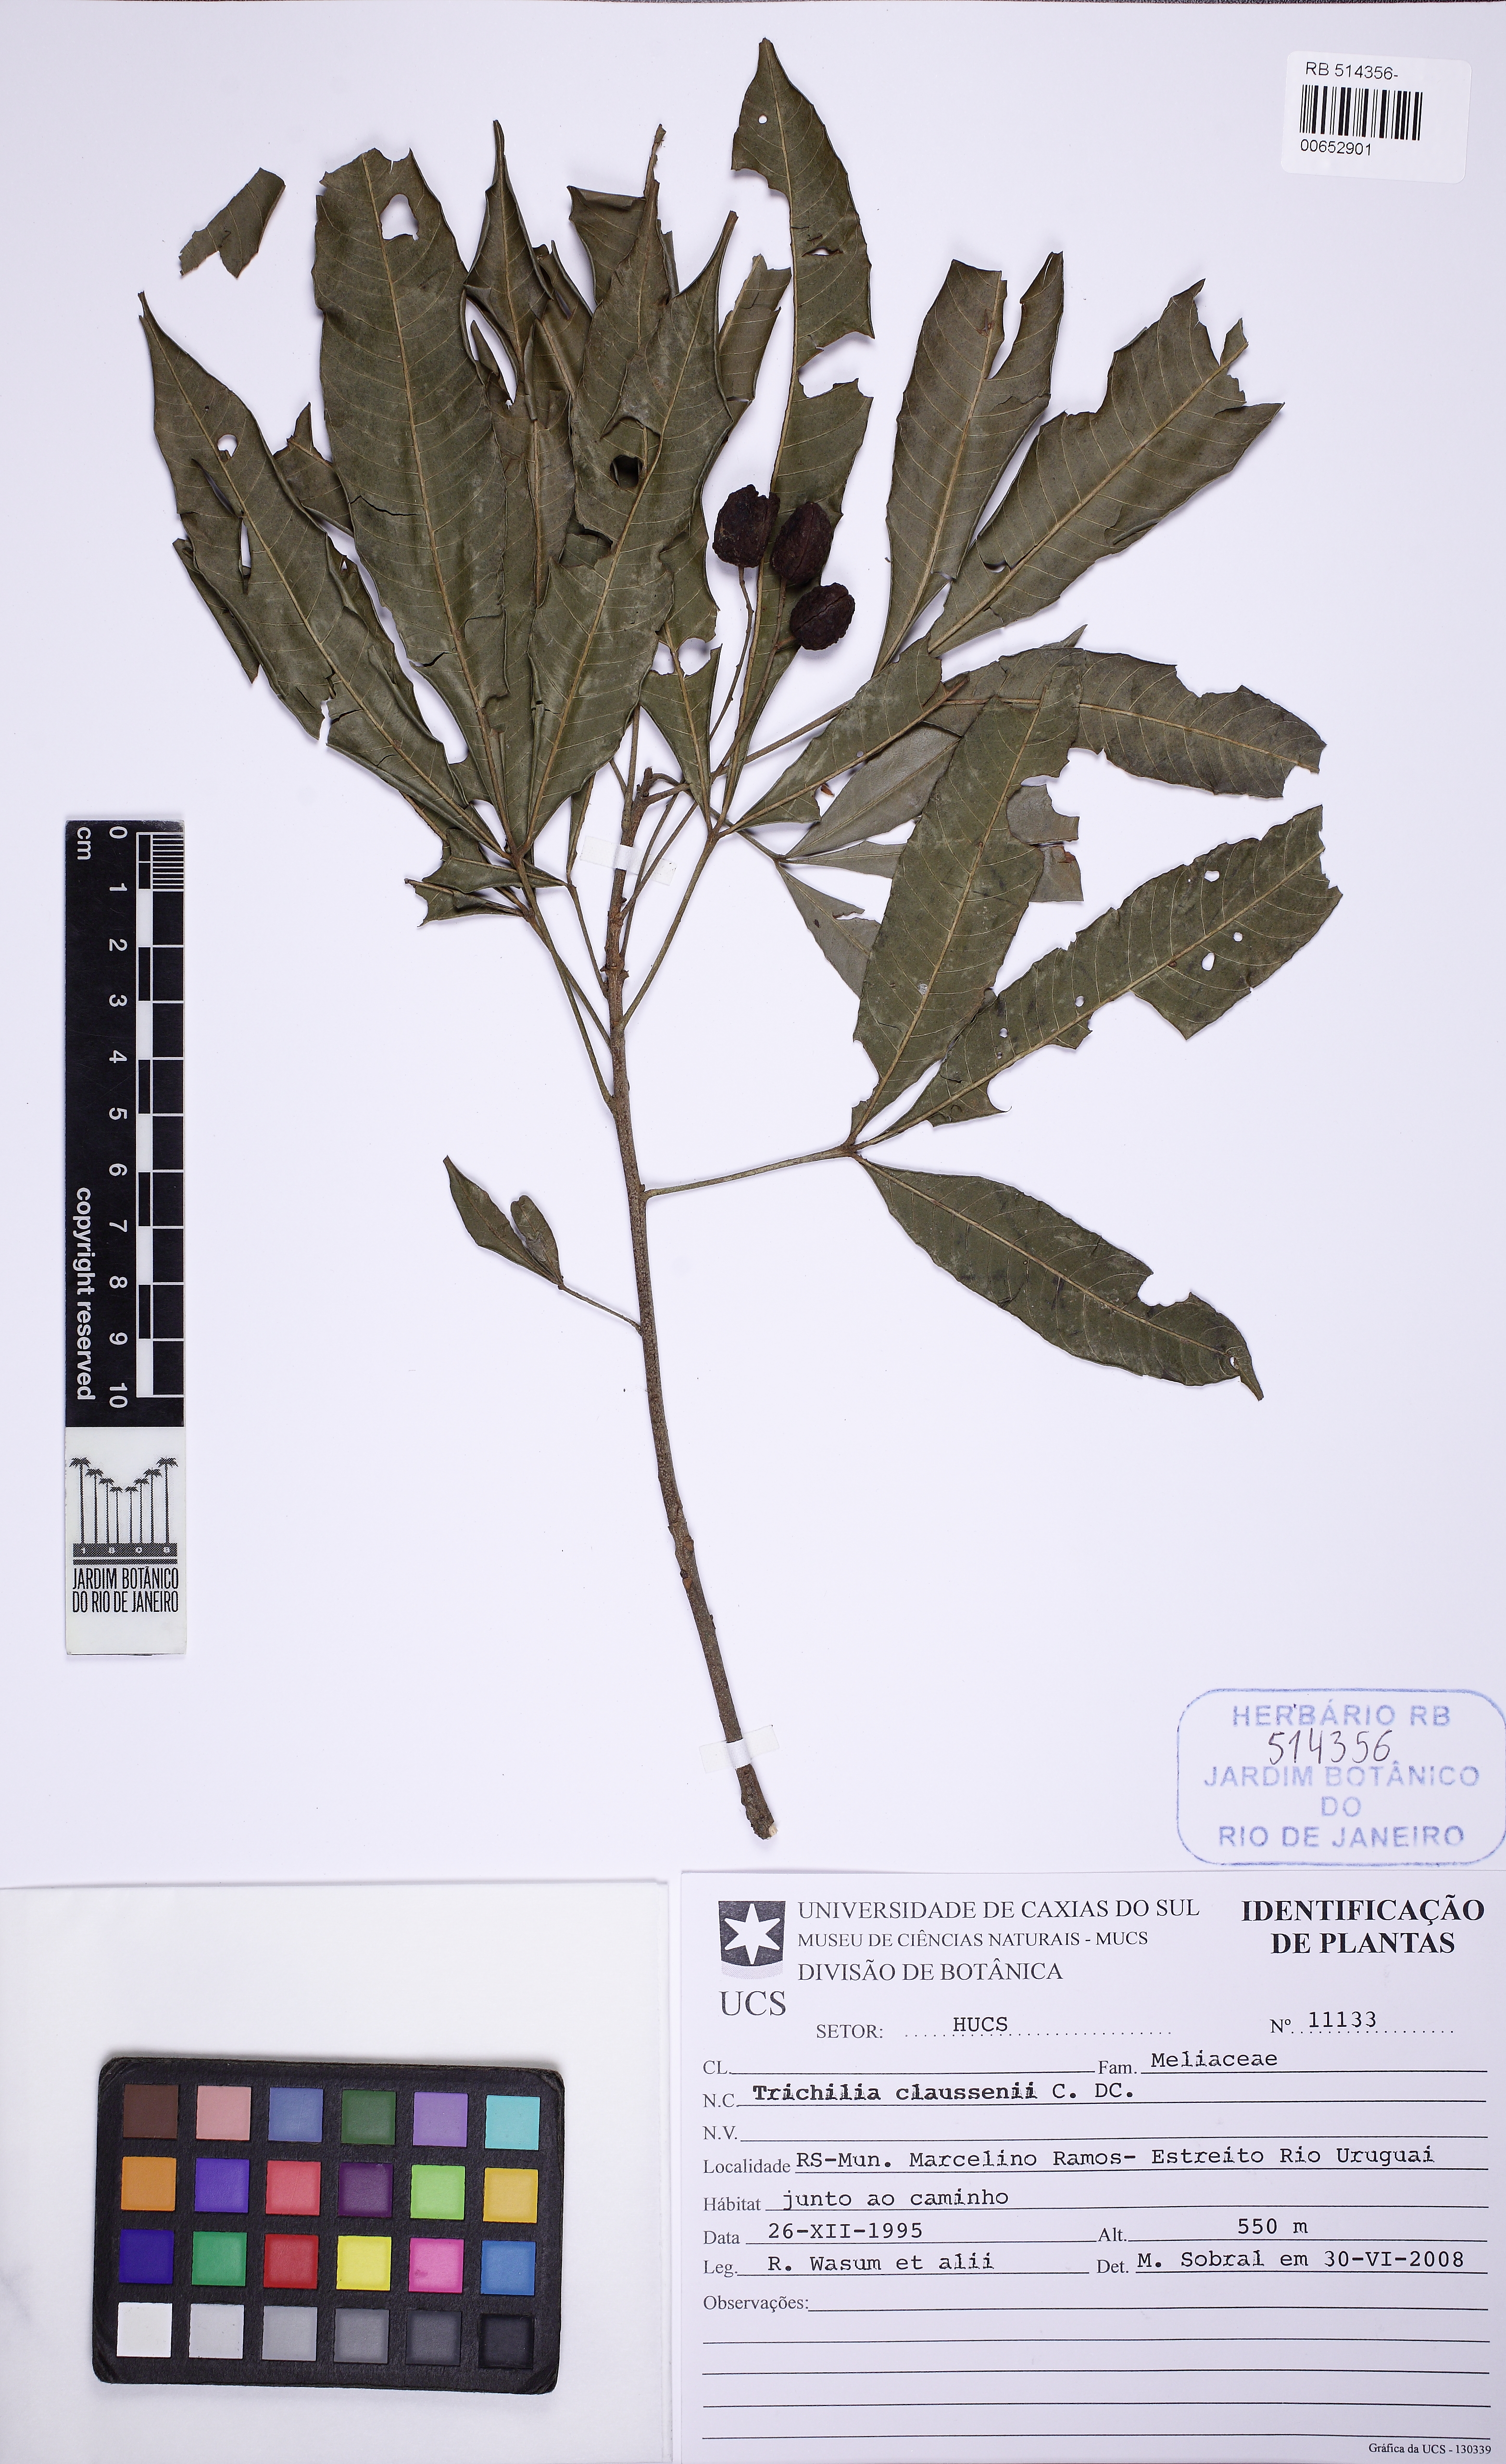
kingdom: Plantae
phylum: Tracheophyta
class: Magnoliopsida
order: Sapindales
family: Meliaceae
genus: Trichilia
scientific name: Trichilia claussenii
